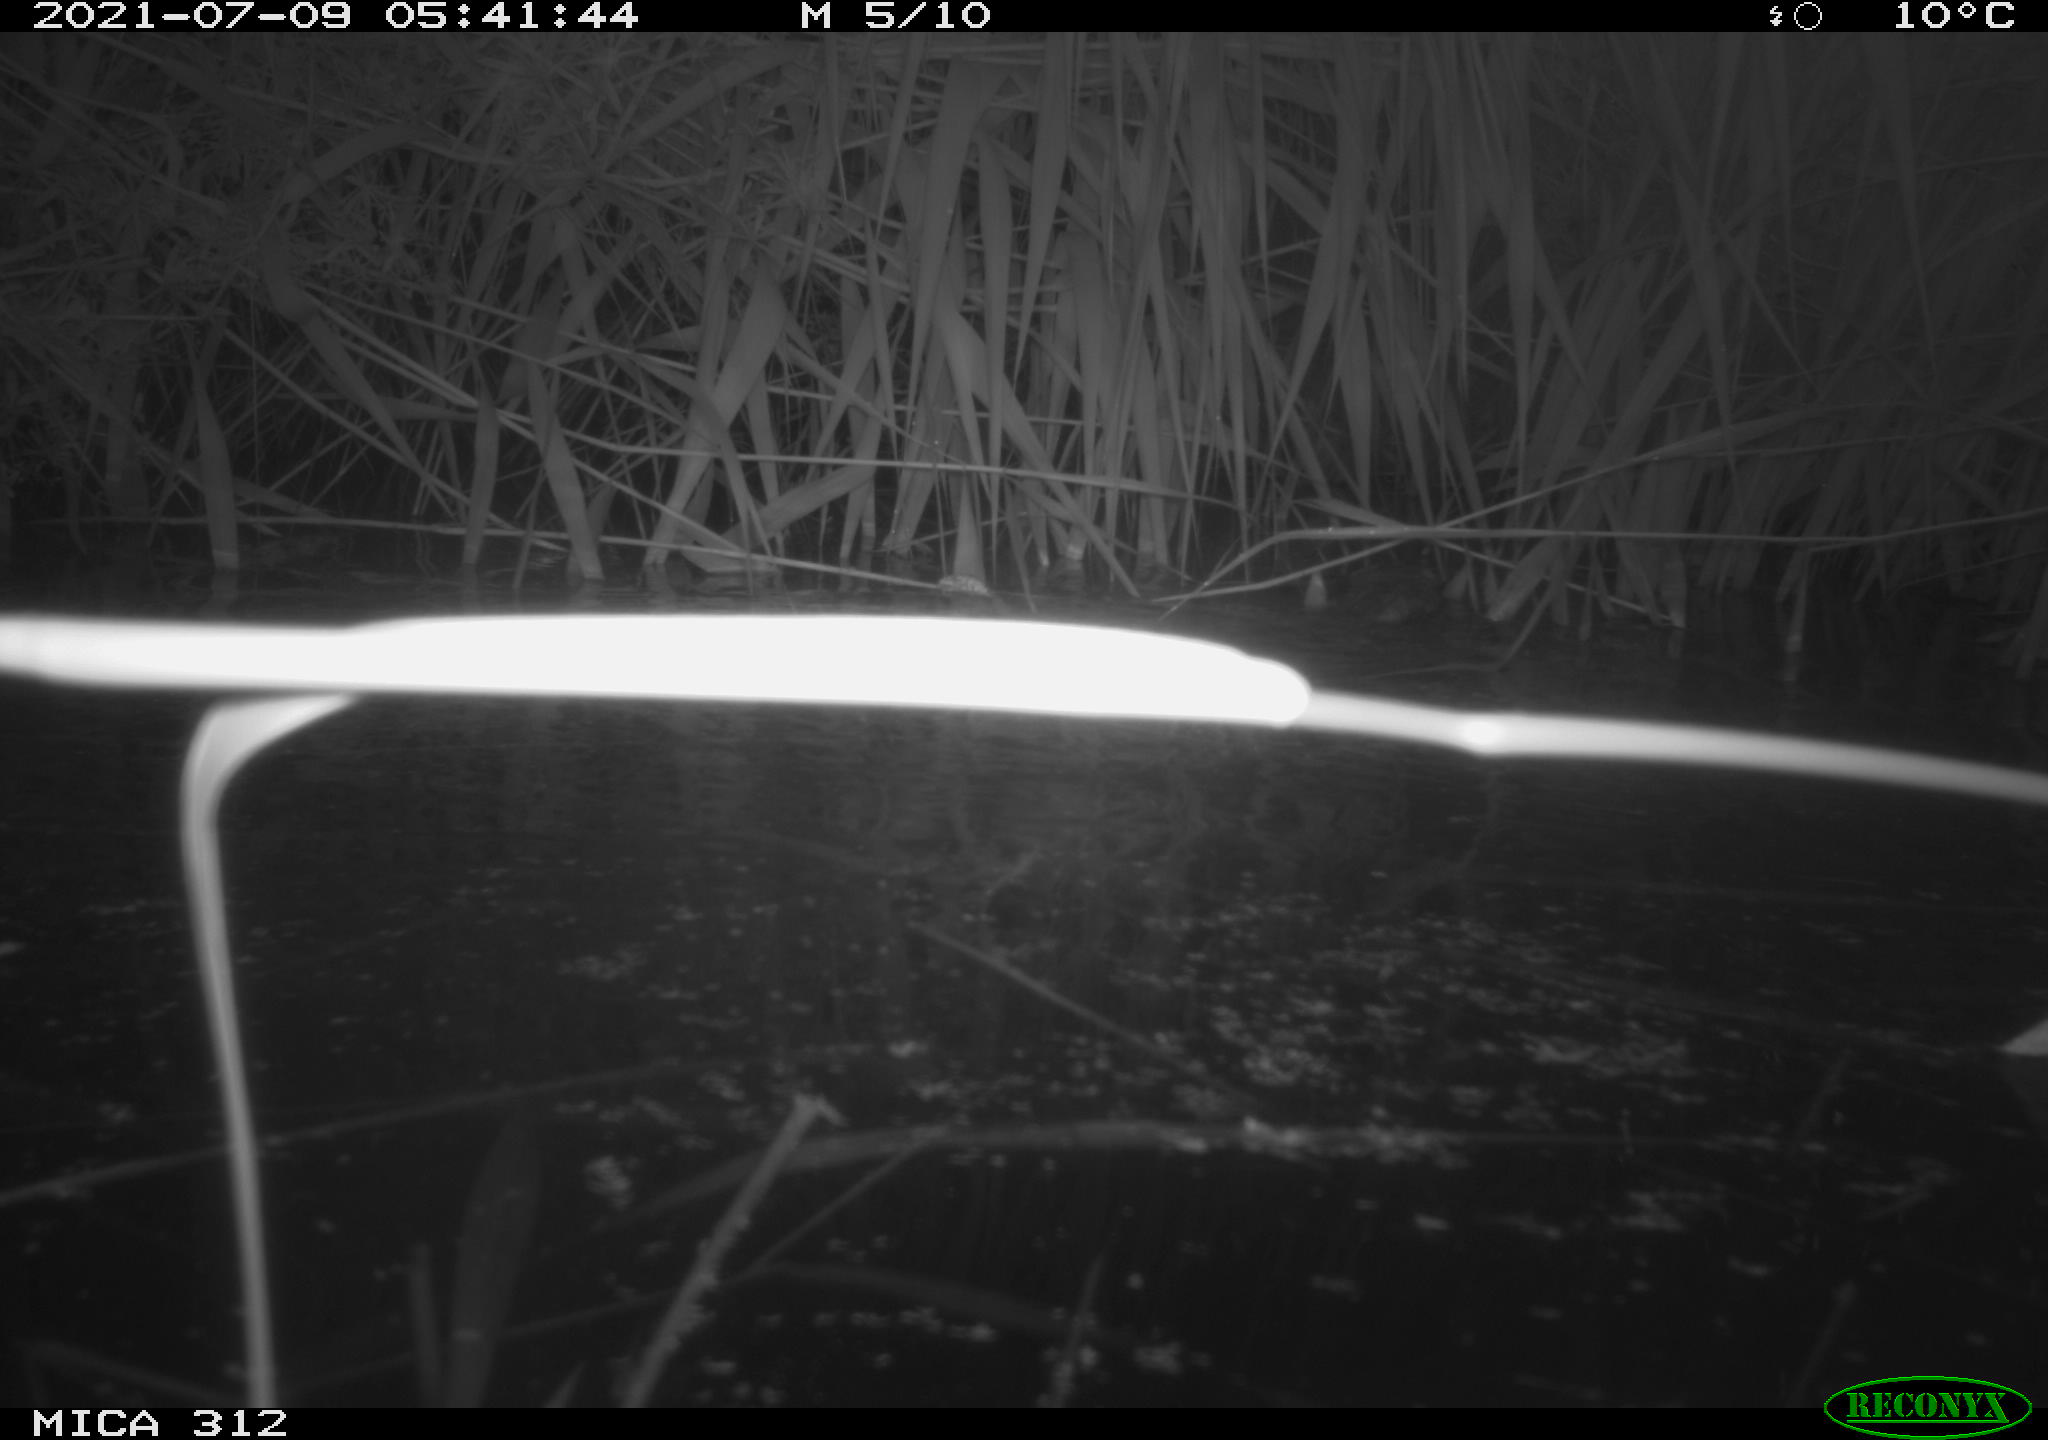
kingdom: Animalia
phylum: Chordata
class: Mammalia
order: Rodentia
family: Cricetidae
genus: Ondatra
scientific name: Ondatra zibethicus
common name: Muskrat
